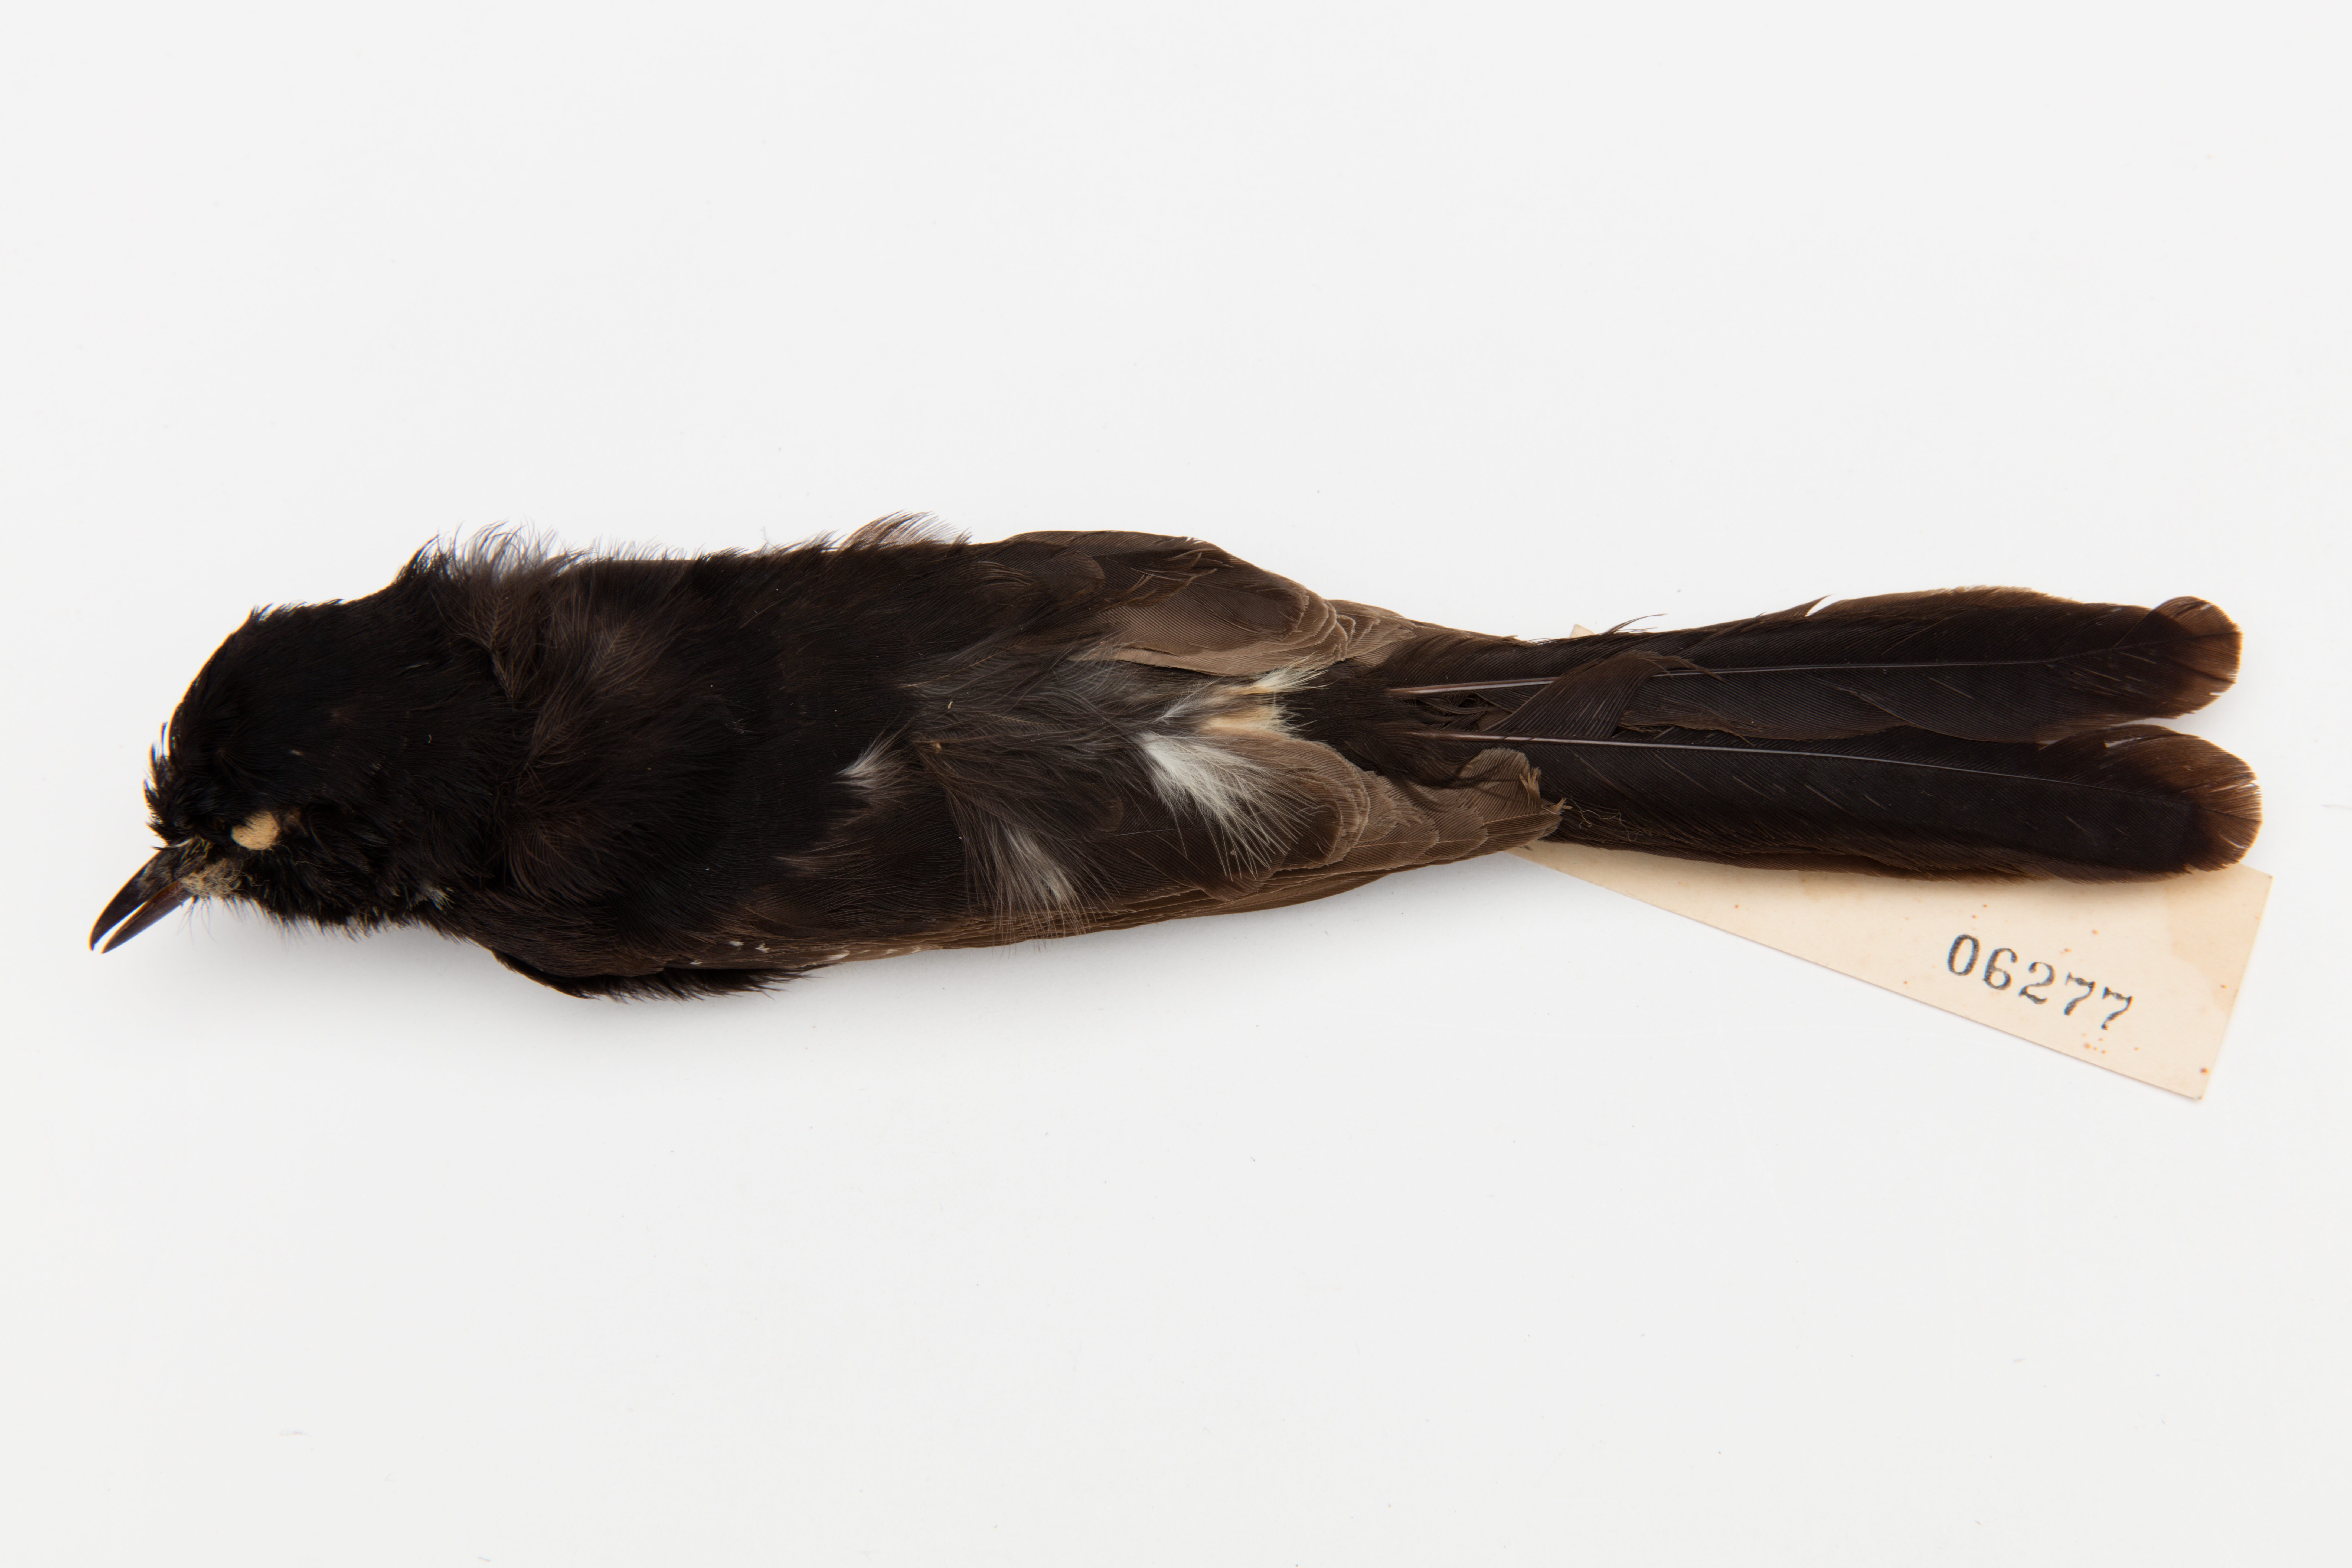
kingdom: Animalia
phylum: Chordata
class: Aves
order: Passeriformes
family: Rhipiduridae
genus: Rhipidura
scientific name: Rhipidura leucophrys
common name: Willie wagtail
